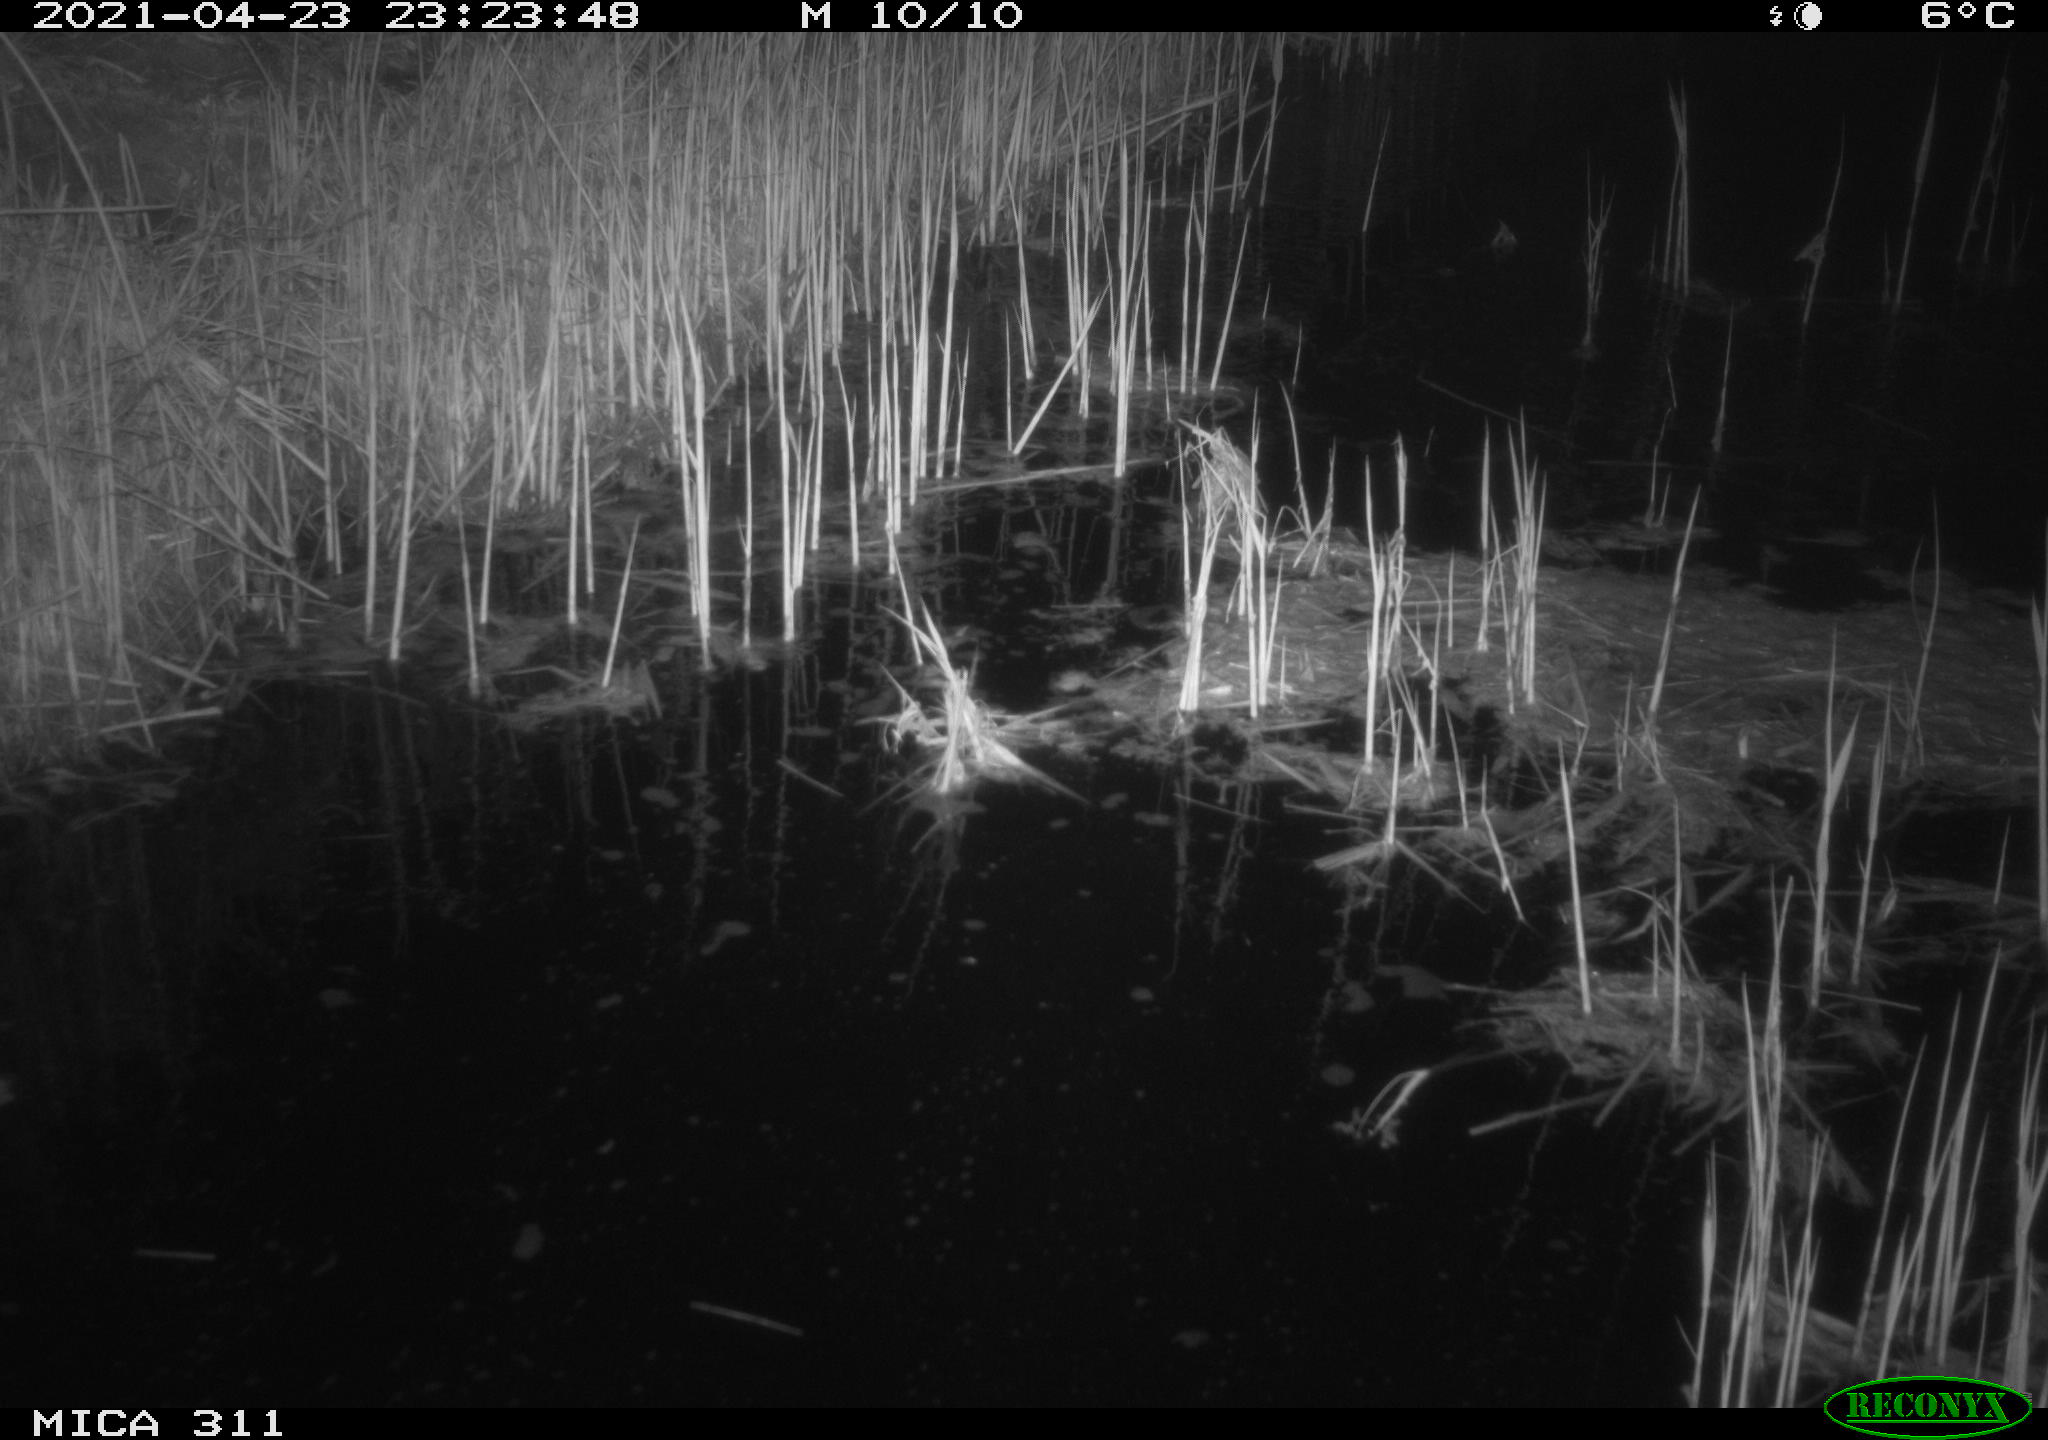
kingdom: Animalia
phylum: Chordata
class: Mammalia
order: Rodentia
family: Cricetidae
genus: Ondatra
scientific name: Ondatra zibethicus
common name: Muskrat
